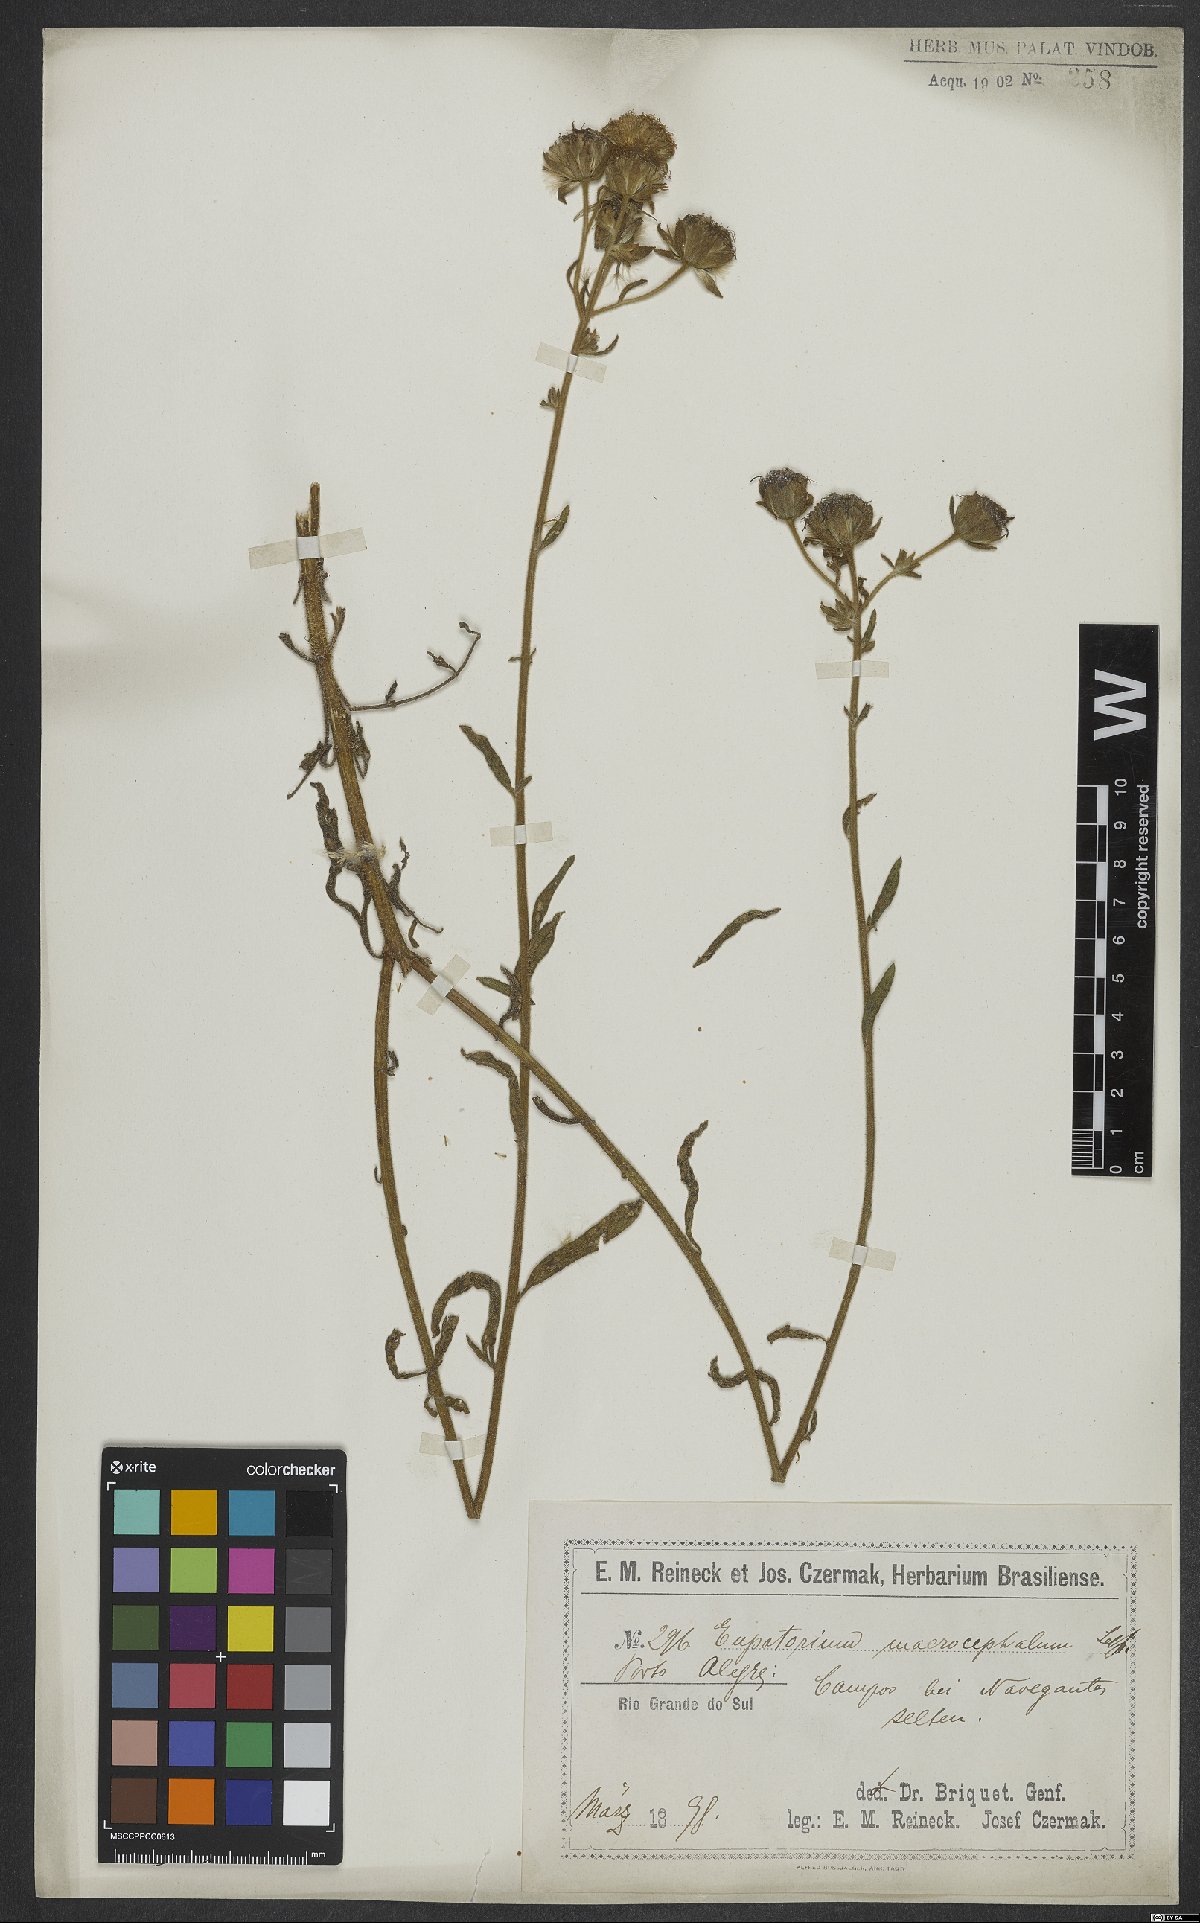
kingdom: Plantae
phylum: Tracheophyta
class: Magnoliopsida
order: Asterales
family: Asteraceae
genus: Campuloclinium
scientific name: Campuloclinium macrocephalum
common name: Pompomweed
